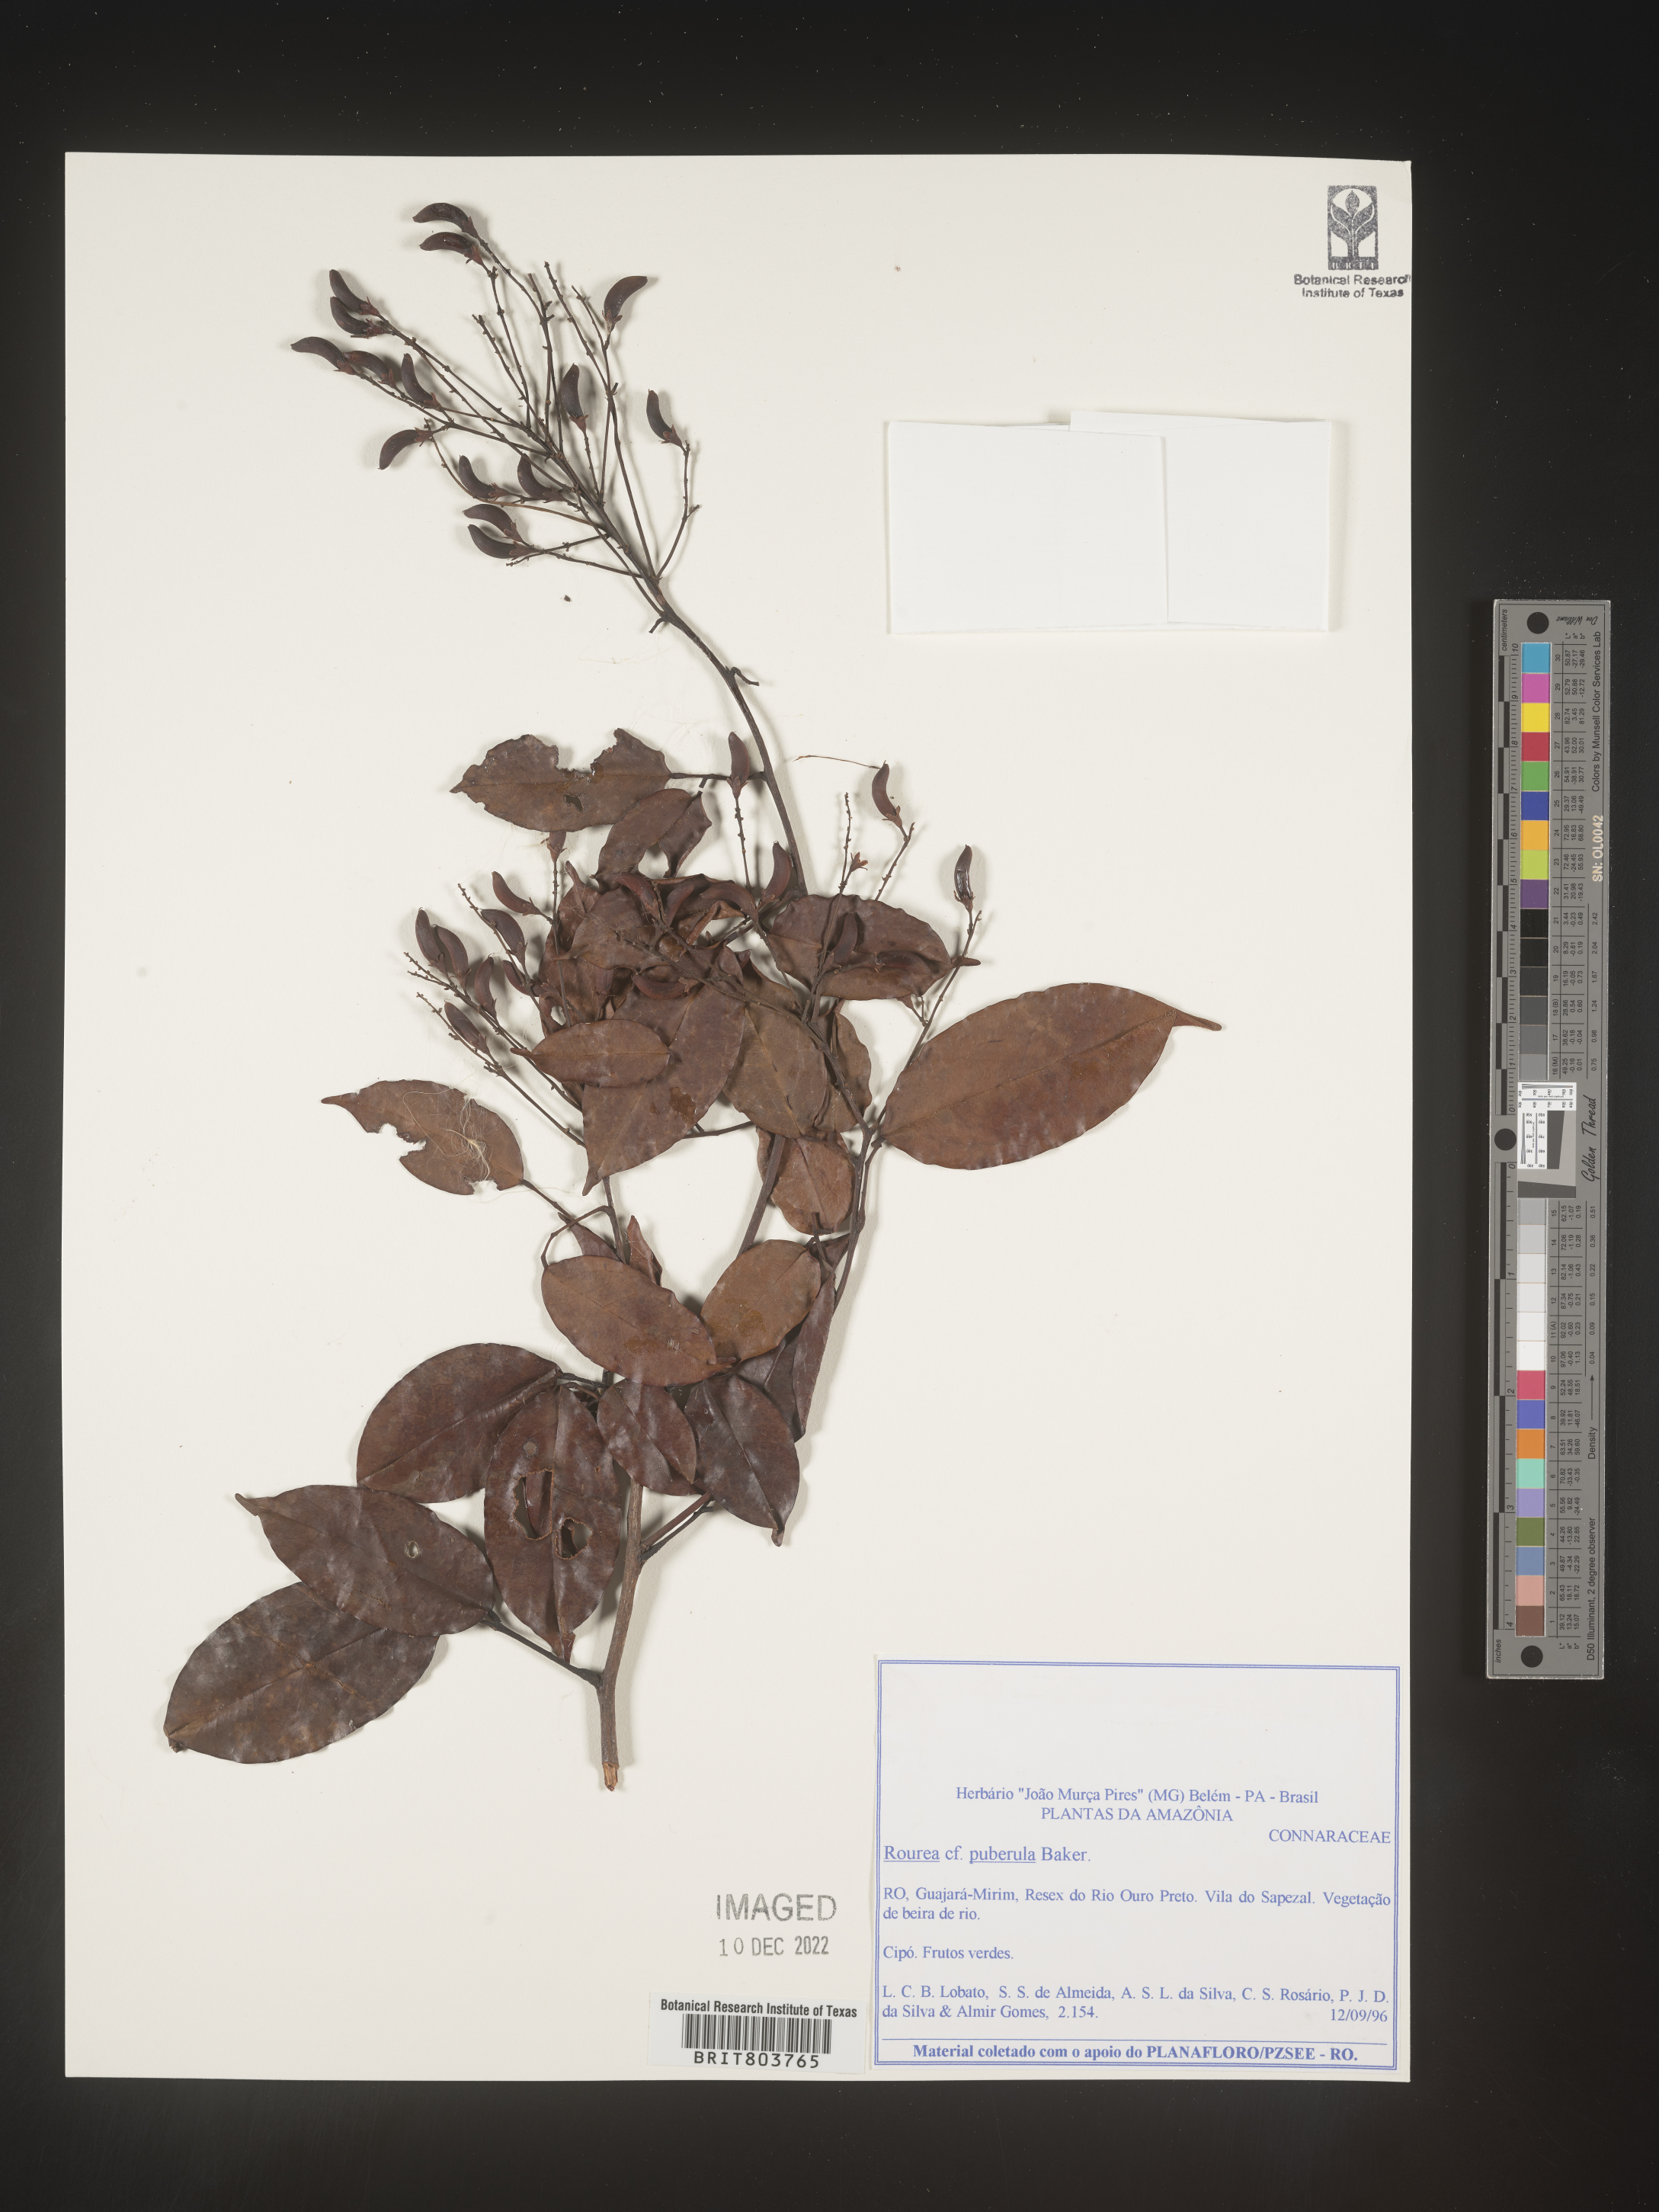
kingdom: Plantae
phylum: Tracheophyta
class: Magnoliopsida
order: Oxalidales
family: Connaraceae
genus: Rourea
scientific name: Rourea
